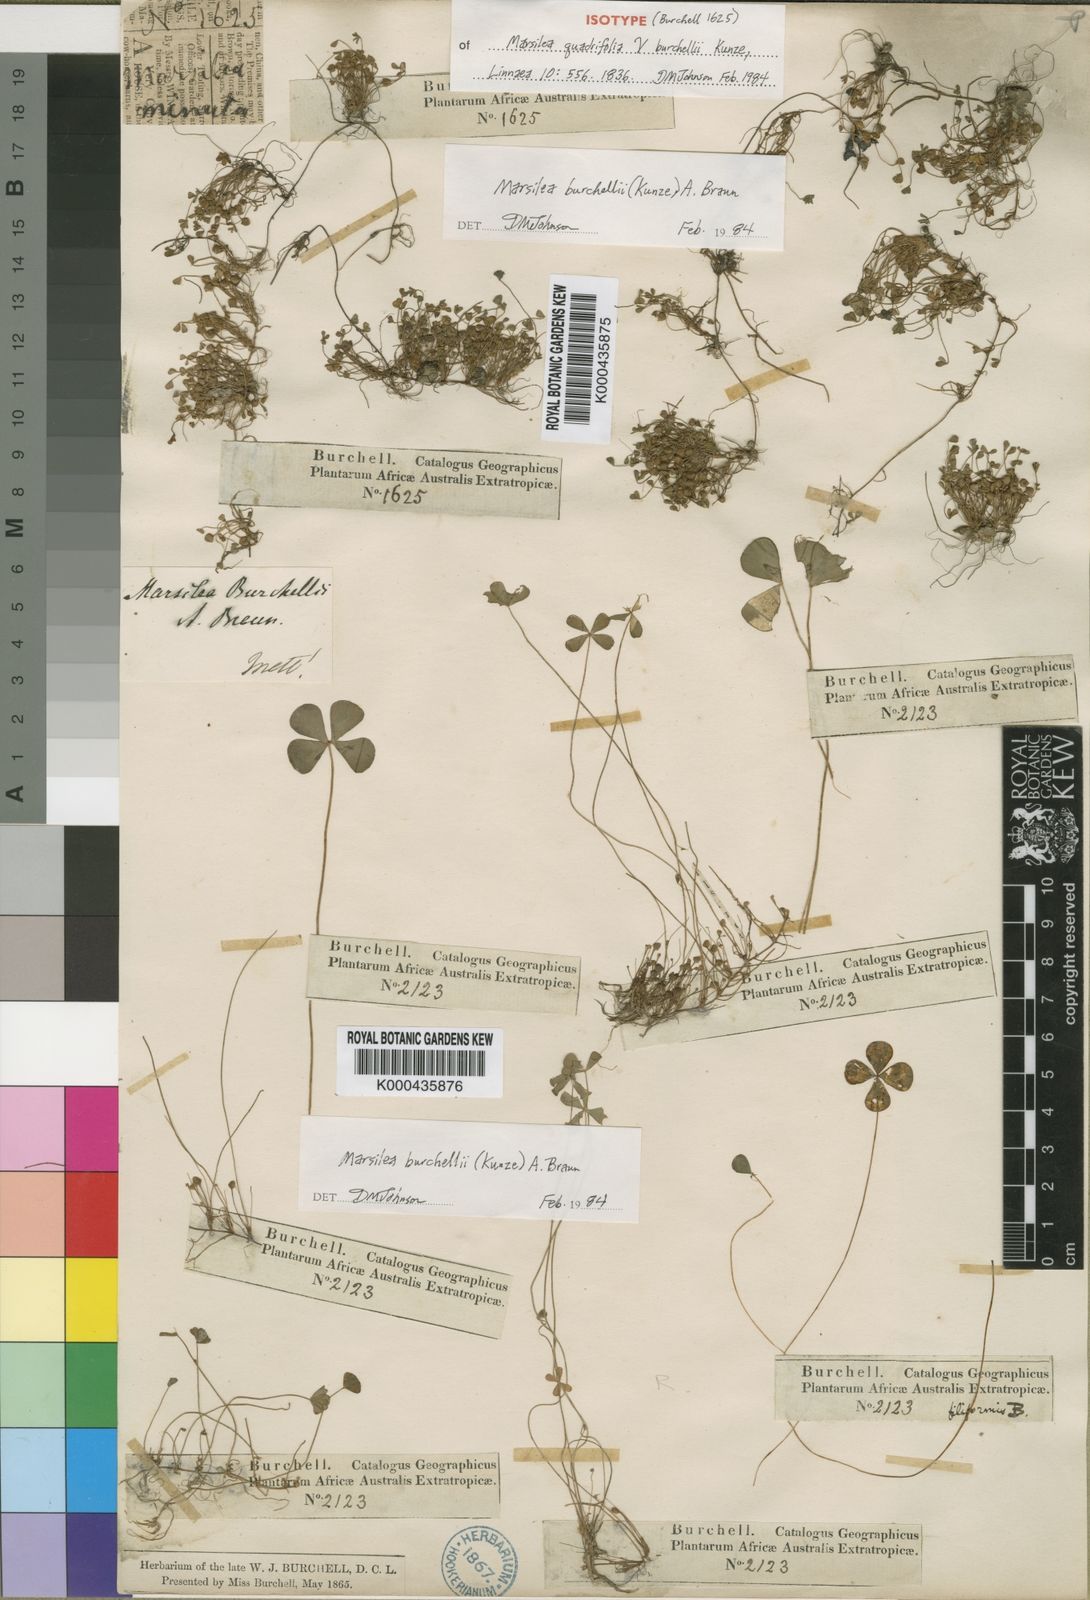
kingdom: Plantae
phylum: Tracheophyta
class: Polypodiopsida
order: Salviniales
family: Marsileaceae
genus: Marsilea
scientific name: Marsilea burchellii
